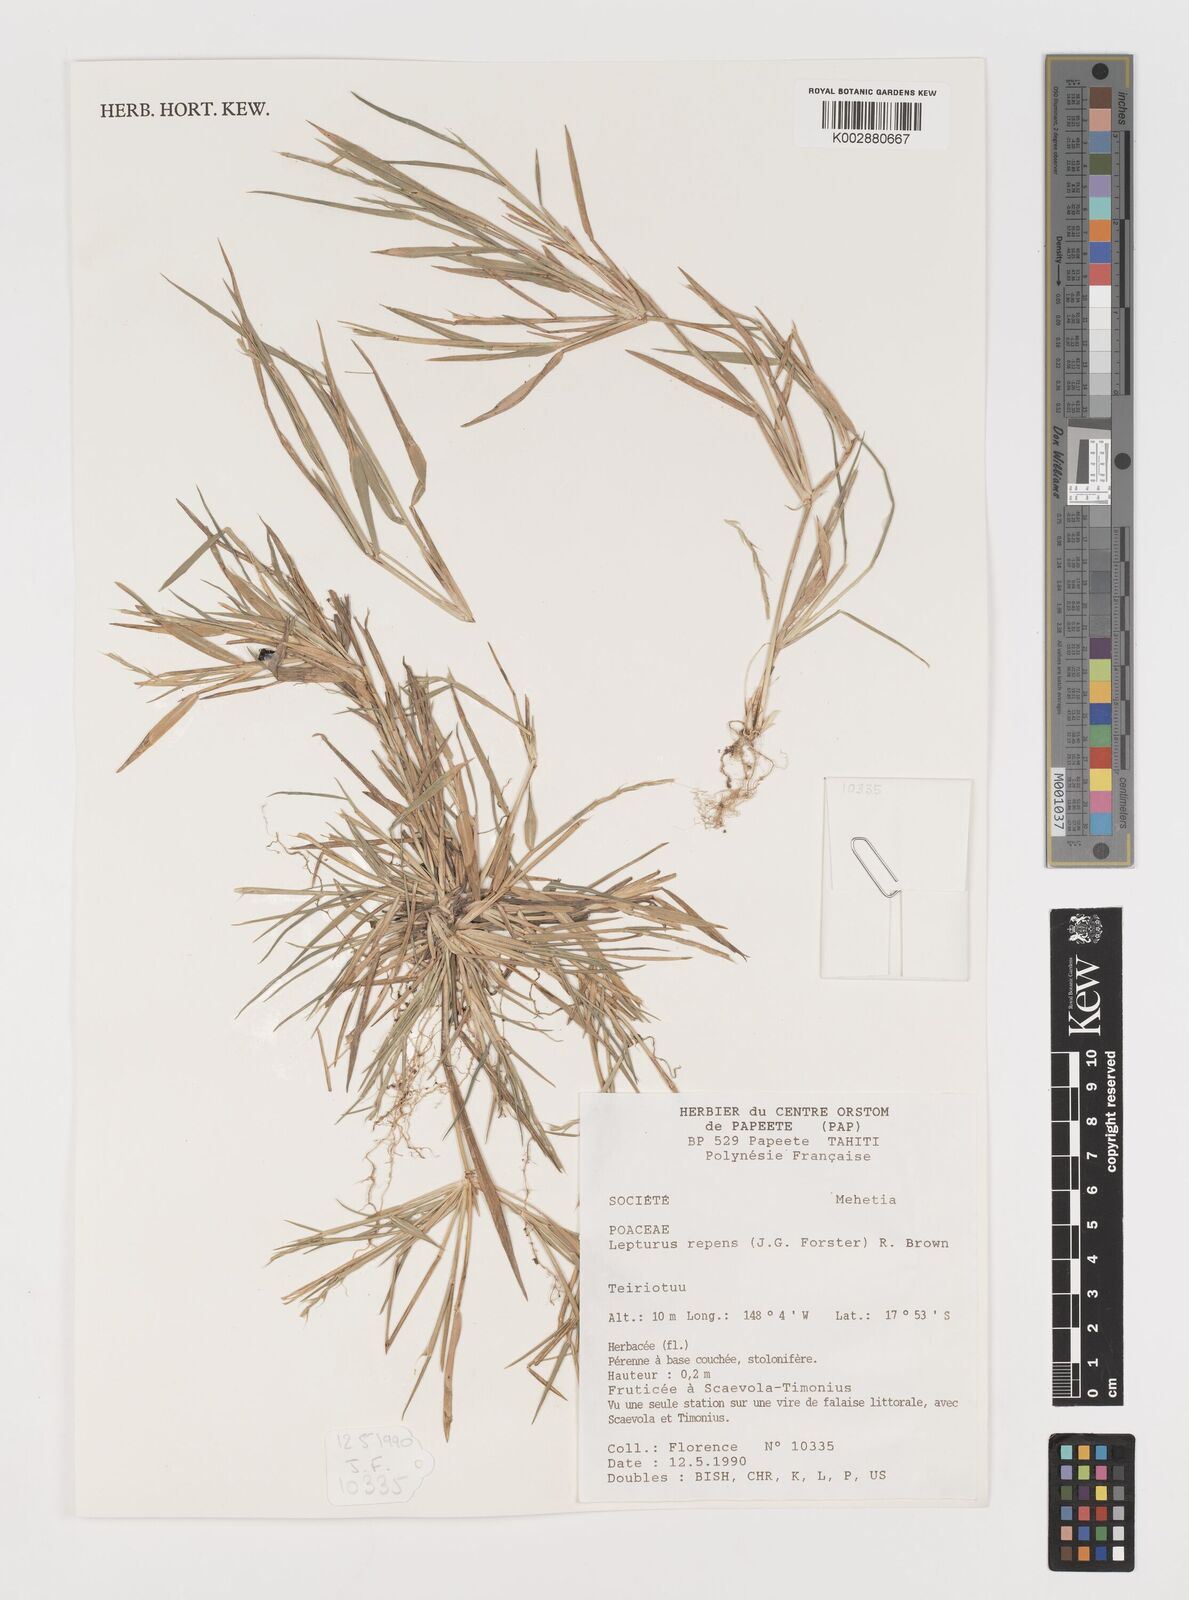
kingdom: Plantae
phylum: Tracheophyta
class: Liliopsida
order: Poales
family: Poaceae
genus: Lepturus
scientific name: Lepturus repens
